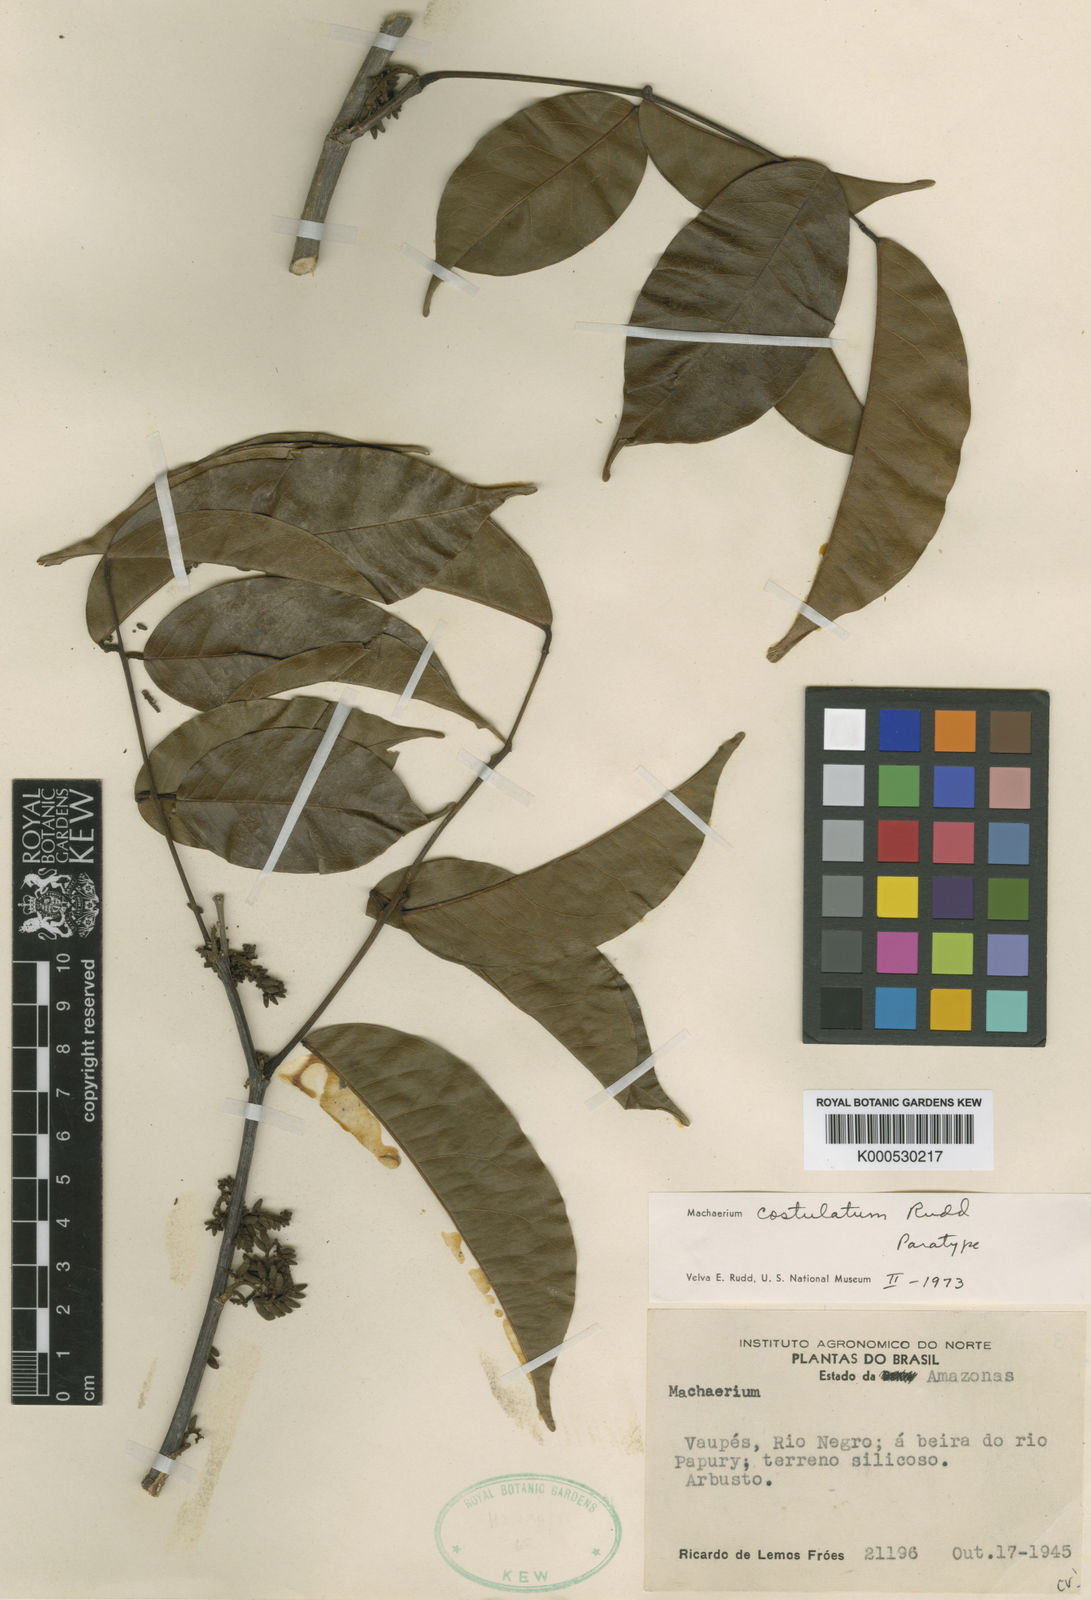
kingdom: Plantae
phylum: Tracheophyta
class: Magnoliopsida
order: Fabales
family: Fabaceae
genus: Machaerium
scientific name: Machaerium costulatum
